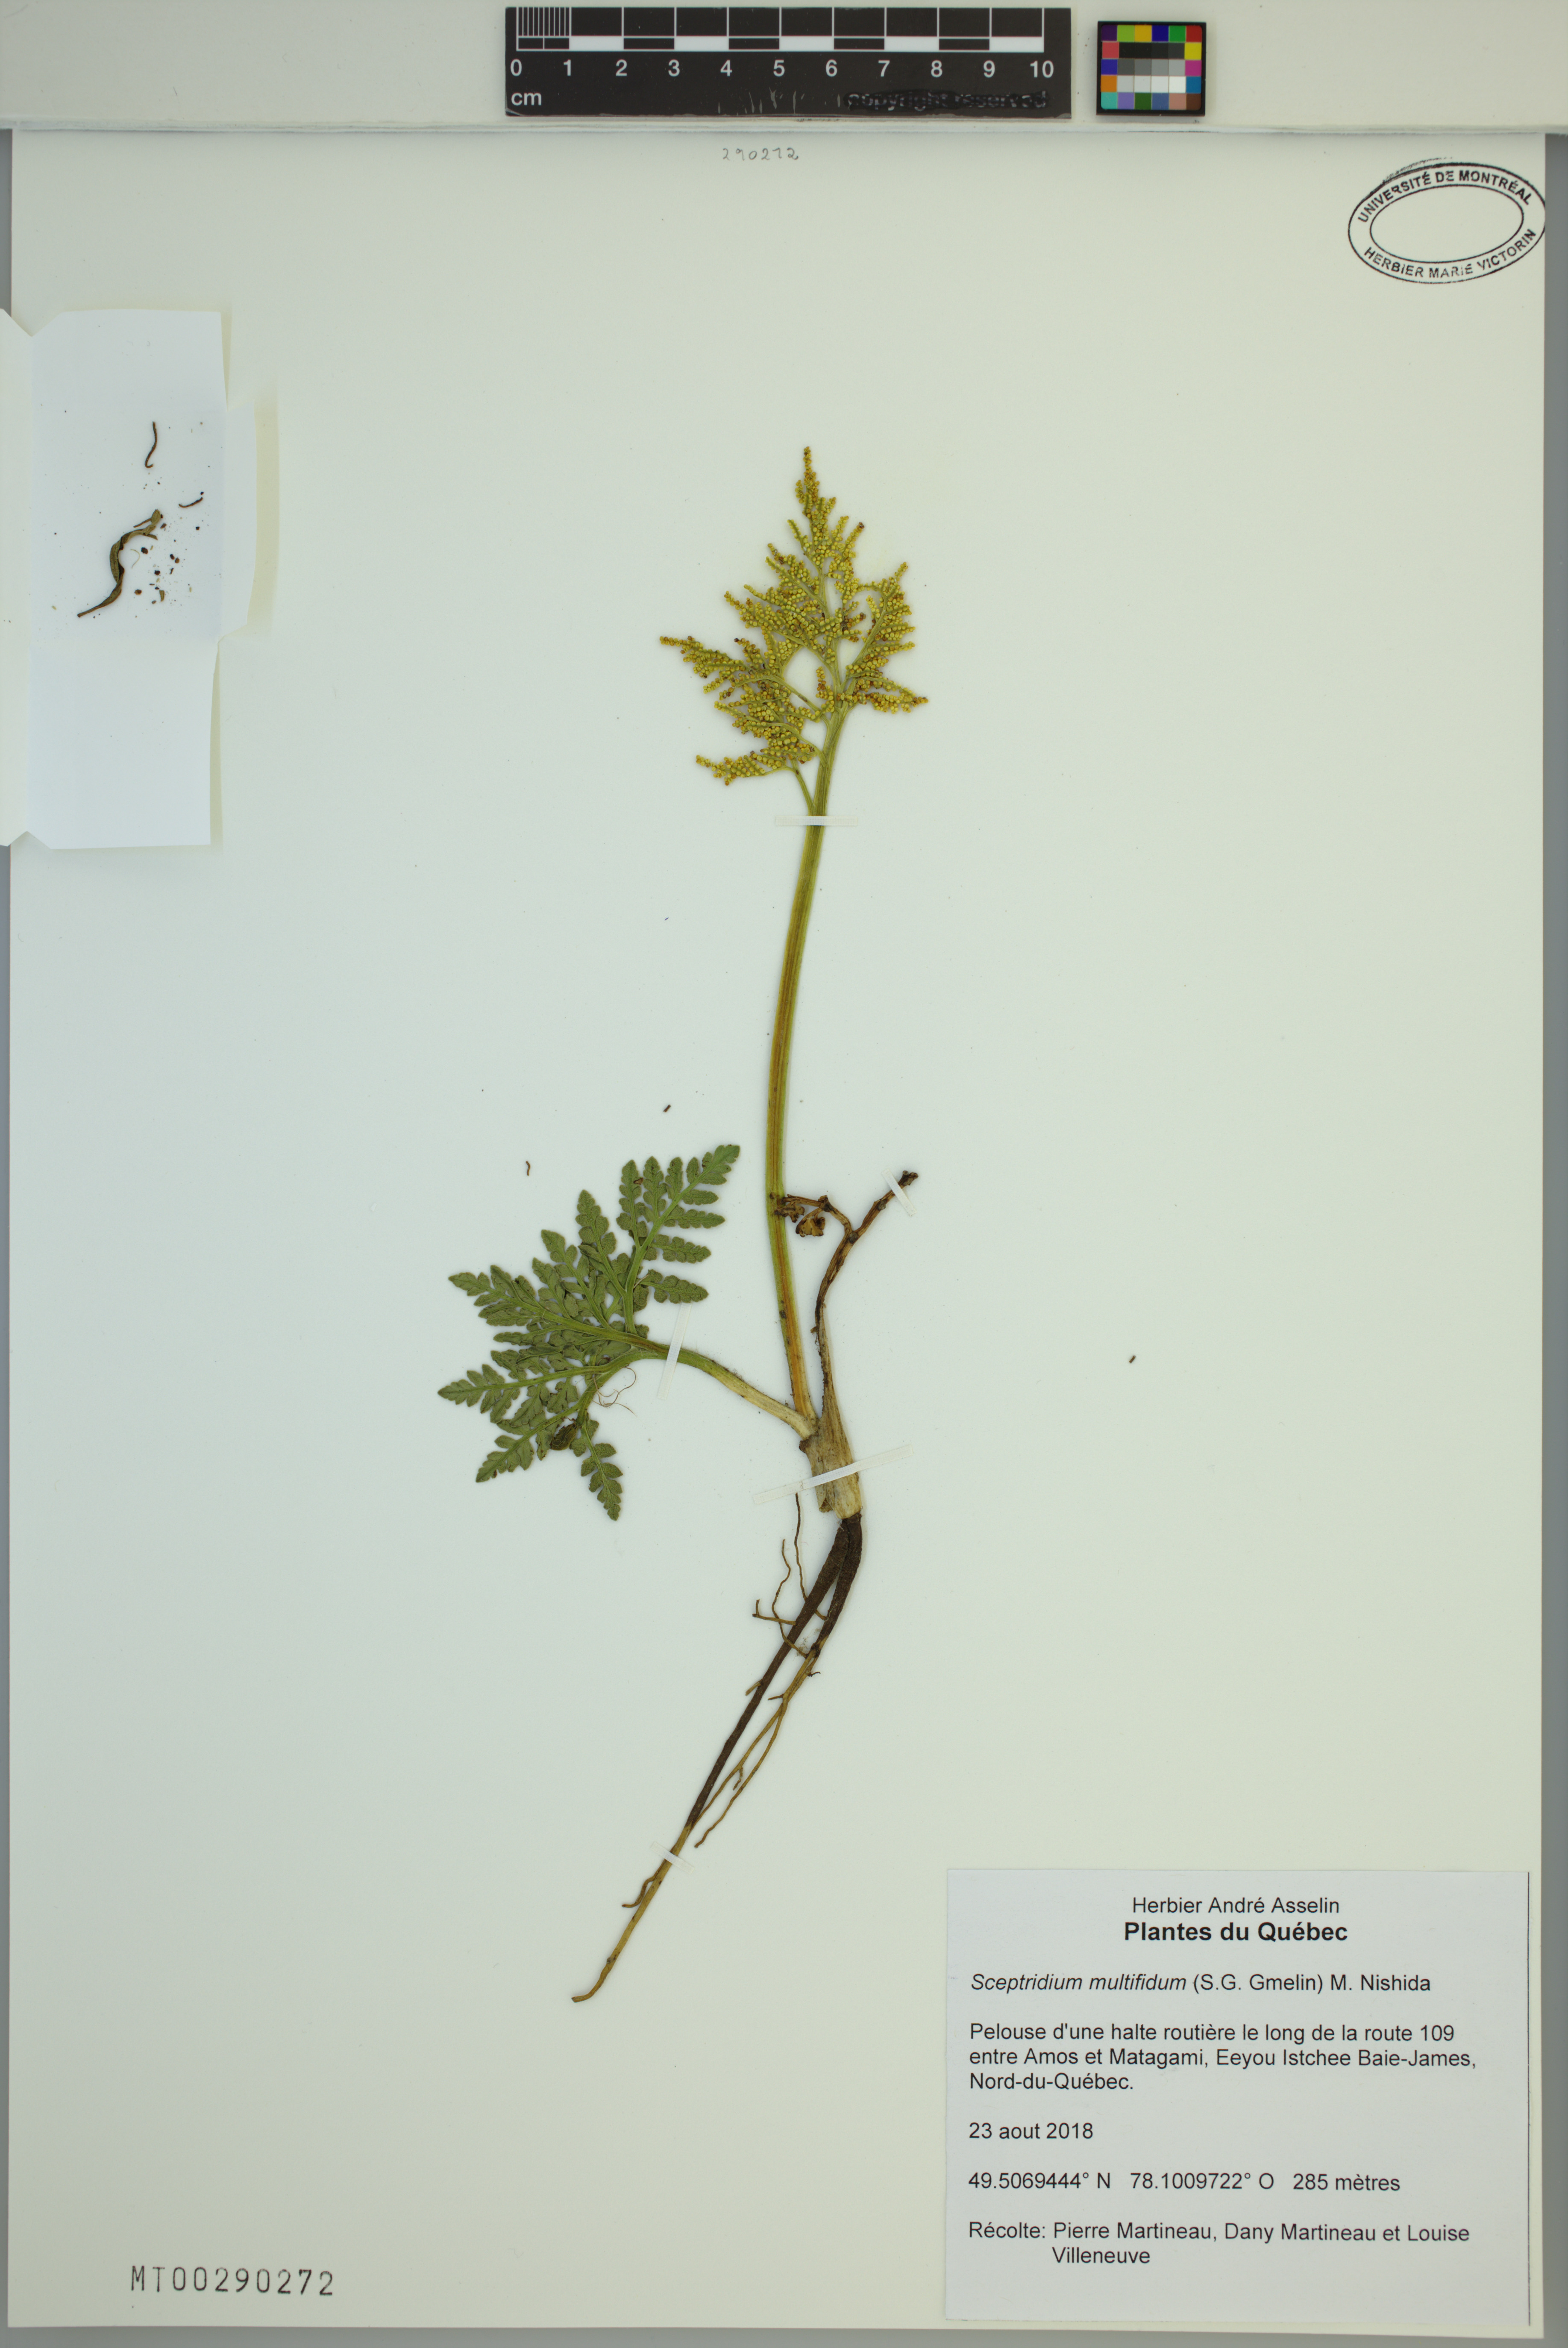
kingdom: Plantae
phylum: Tracheophyta
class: Polypodiopsida
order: Ophioglossales
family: Ophioglossaceae
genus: Sceptridium
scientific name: Sceptridium multifidum
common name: Leathery grape fern
